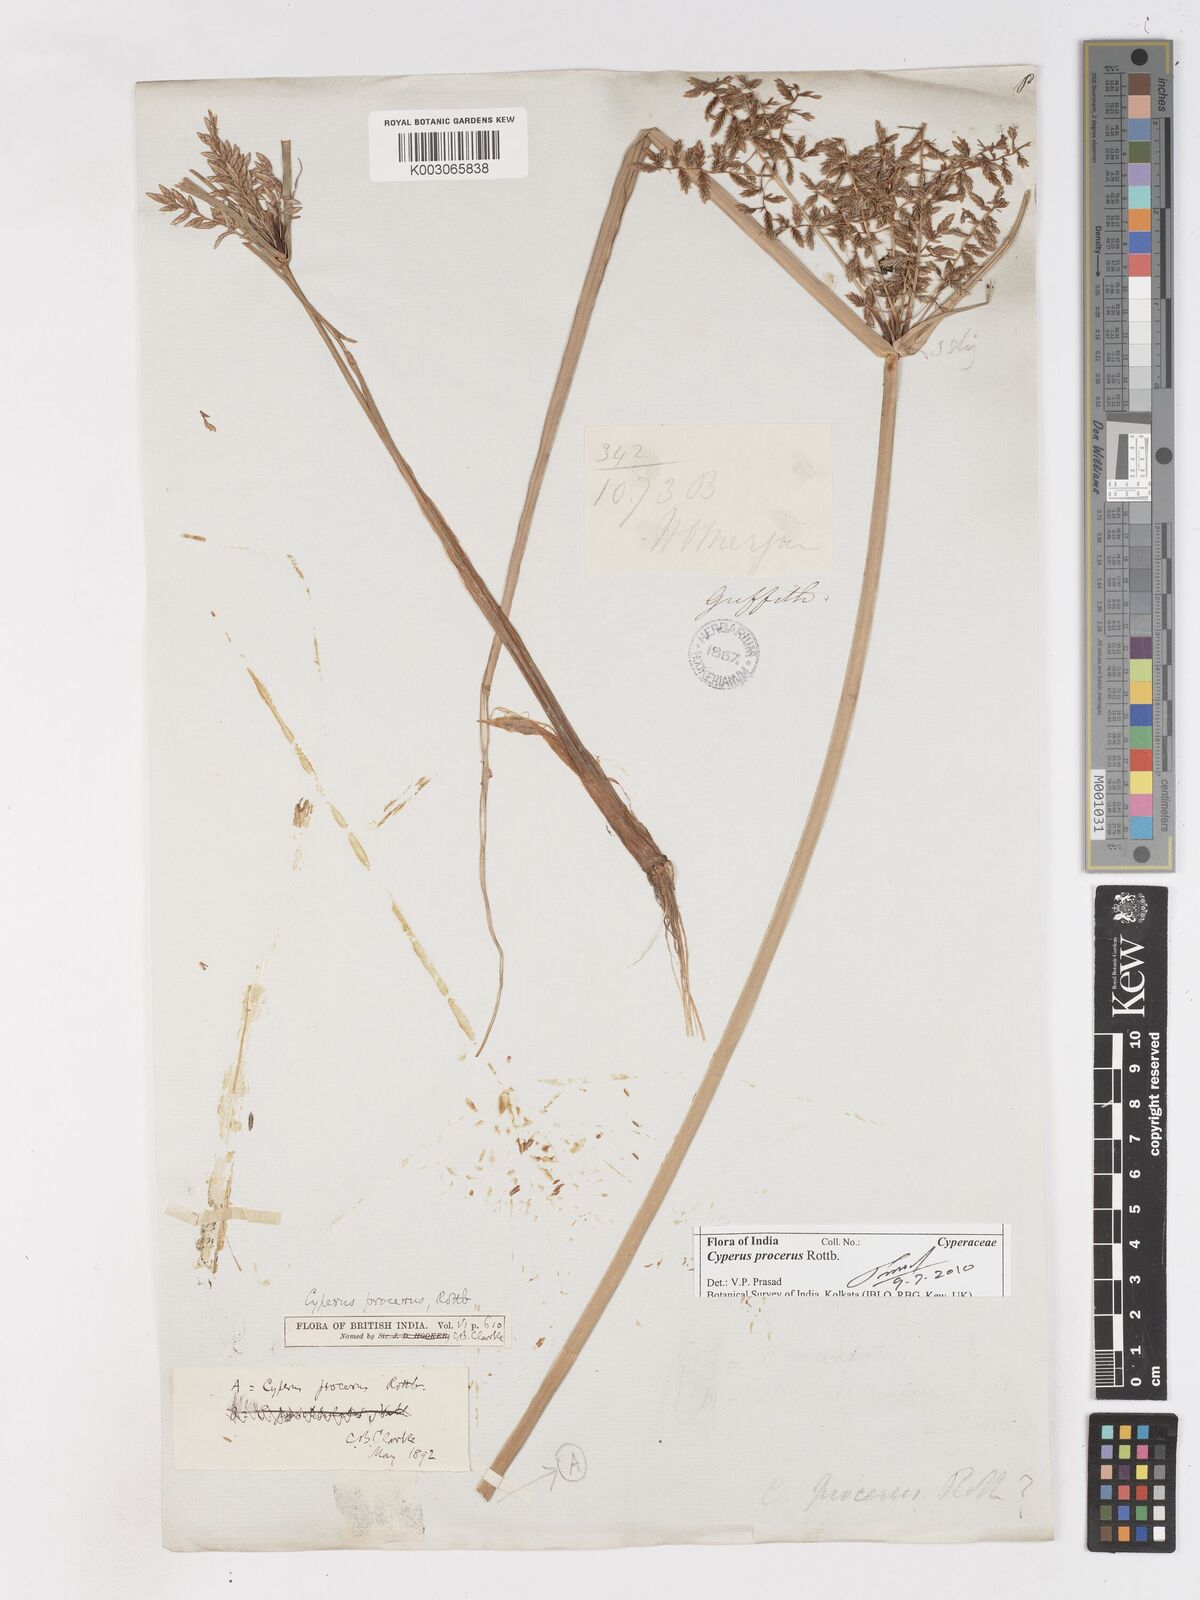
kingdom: Plantae
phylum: Tracheophyta
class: Liliopsida
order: Poales
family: Cyperaceae
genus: Cyperus
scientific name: Cyperus procerus
